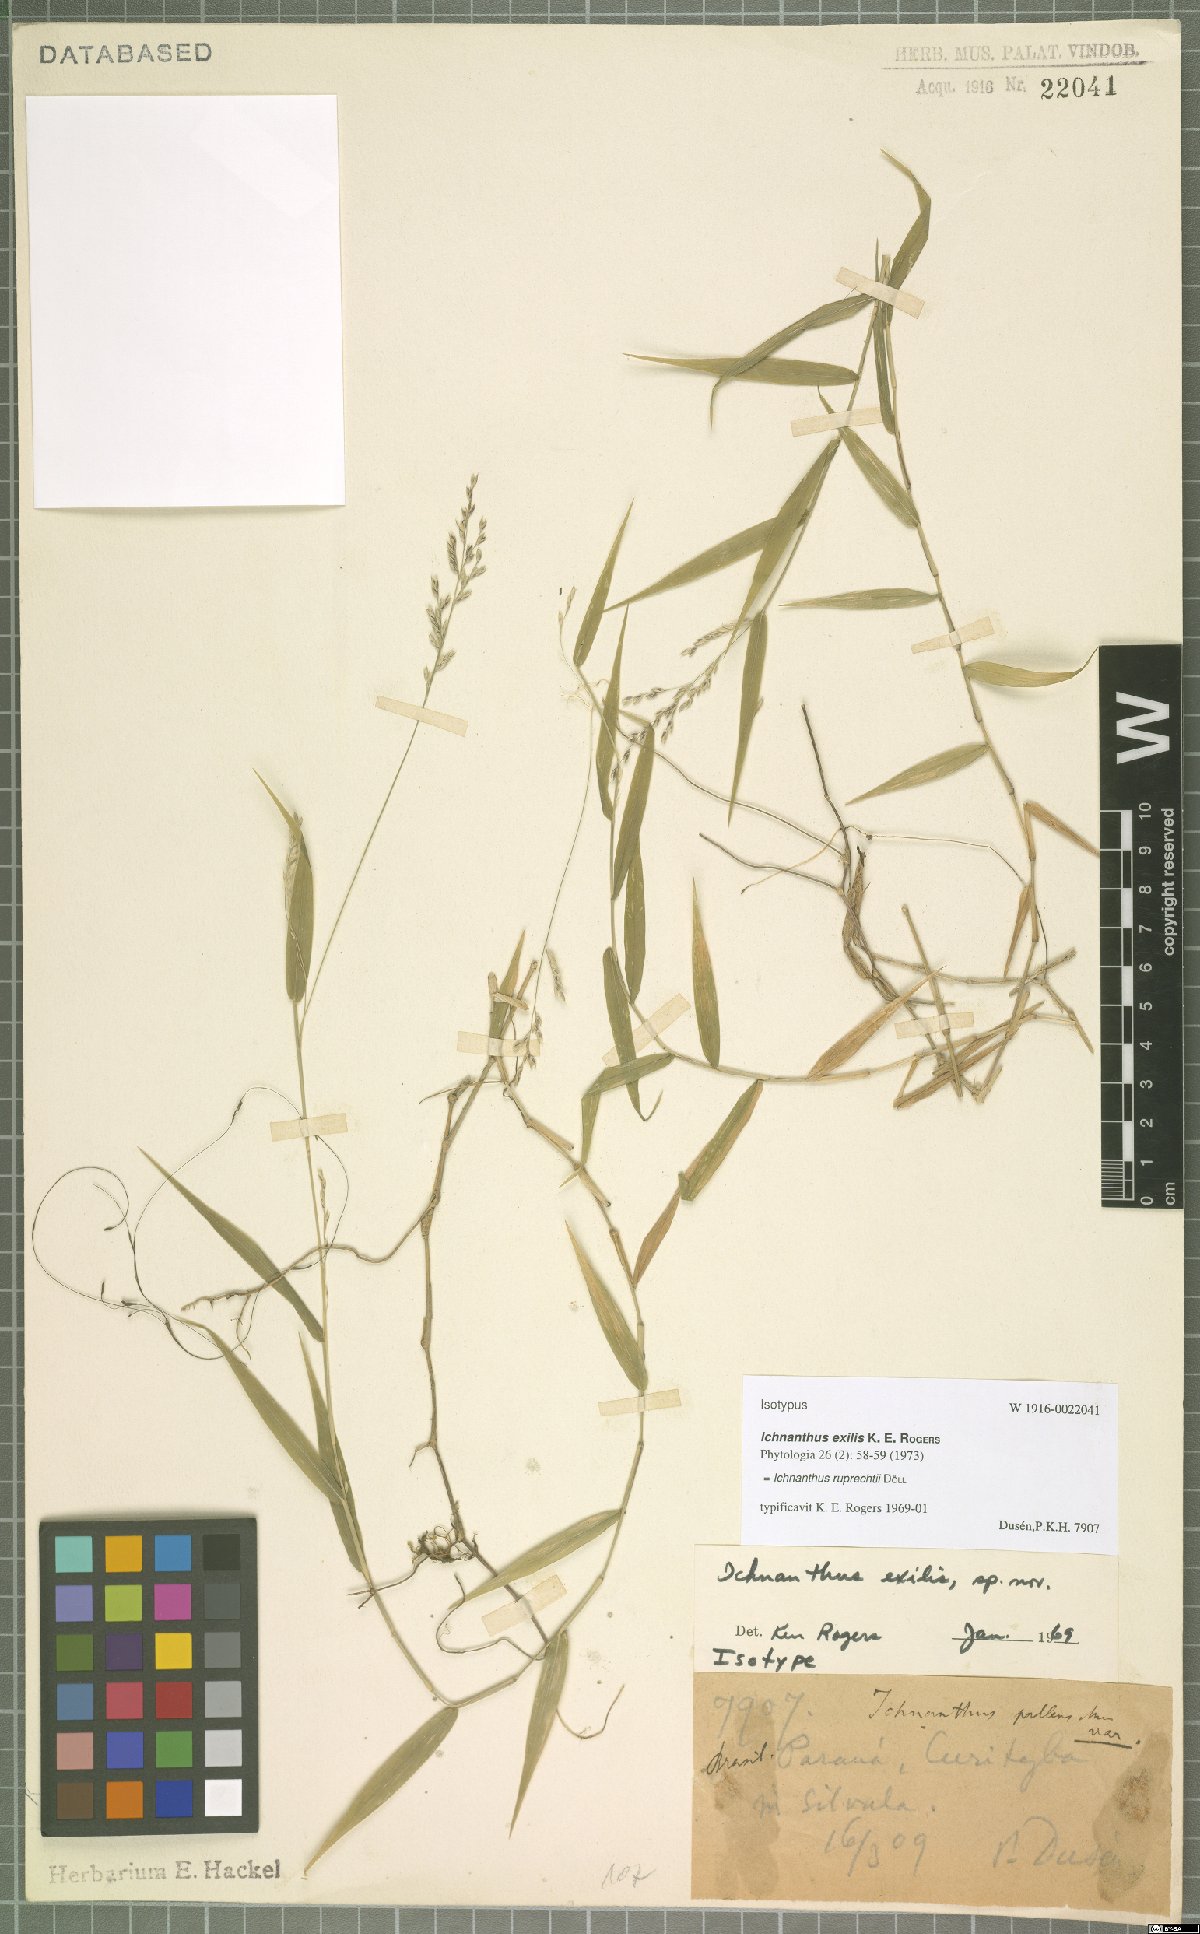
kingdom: Plantae
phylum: Tracheophyta
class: Liliopsida
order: Poales
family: Poaceae
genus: Ichnanthus
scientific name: Ichnanthus ruprechtii
